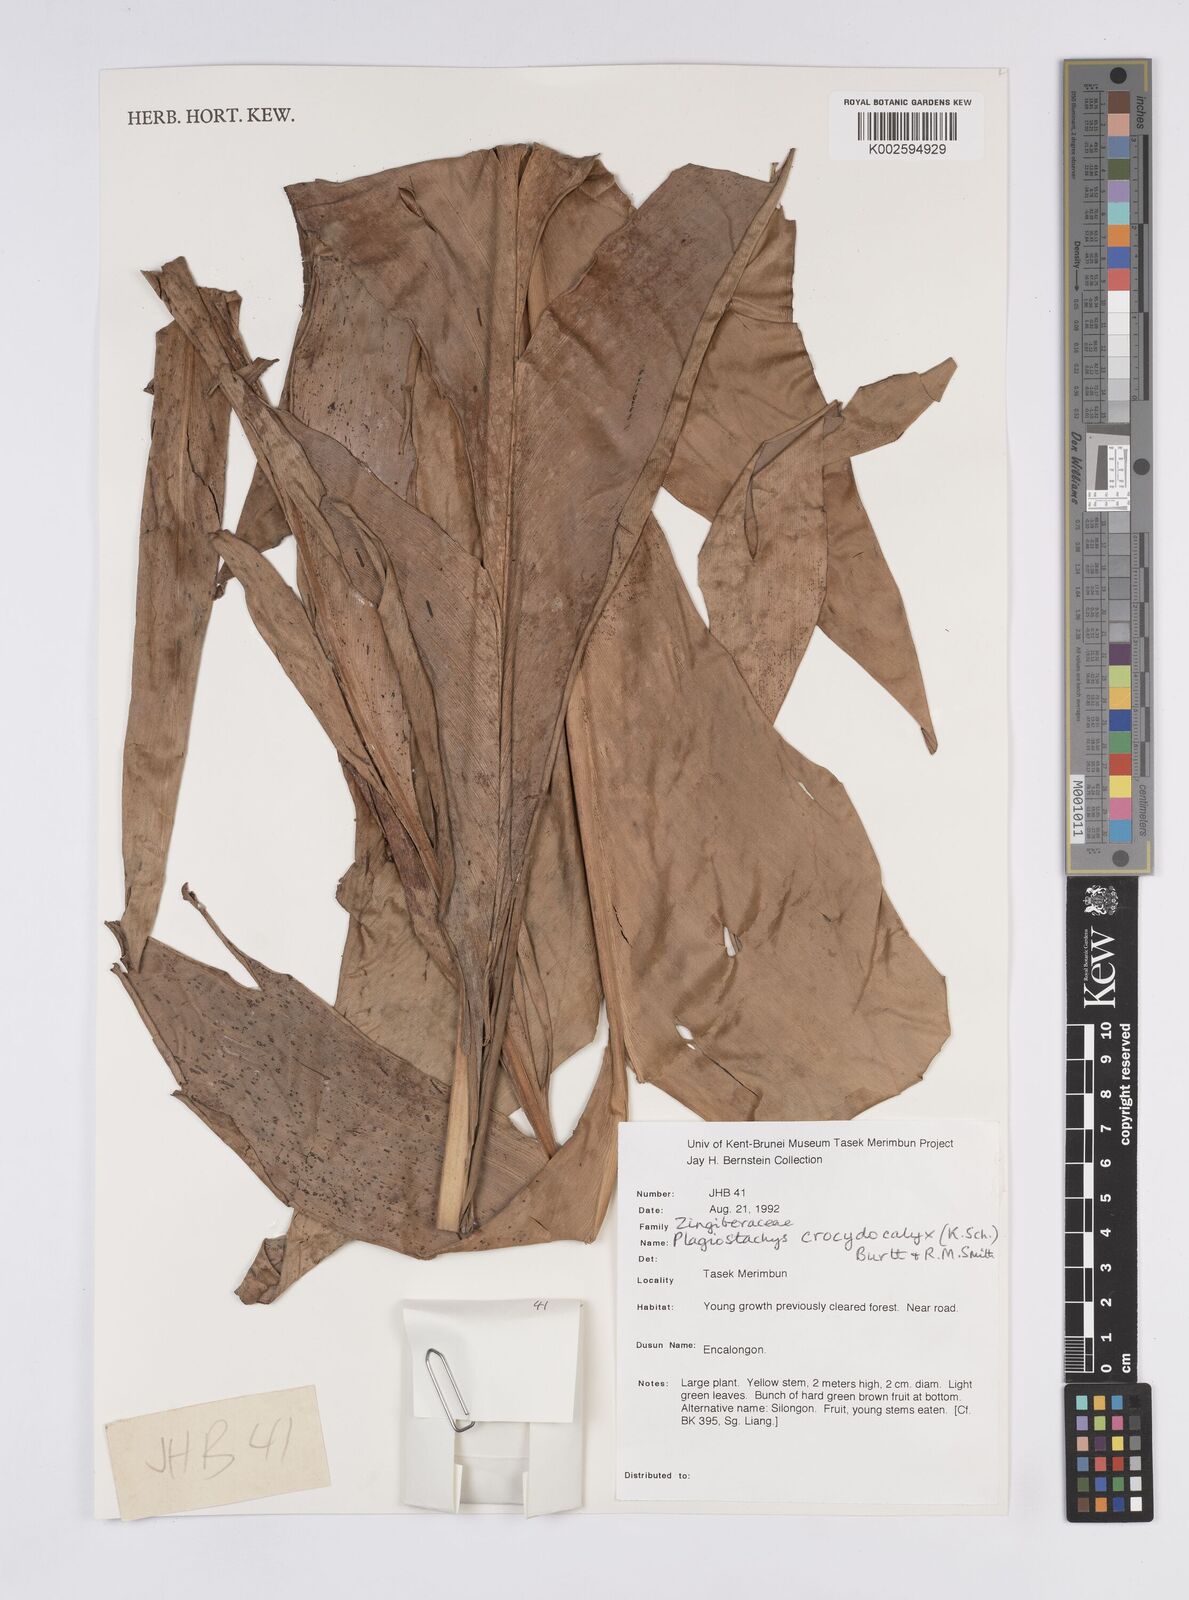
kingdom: Plantae
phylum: Tracheophyta
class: Liliopsida
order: Zingiberales
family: Zingiberaceae
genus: Plagiostachys
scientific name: Plagiostachys crocydocalyx
